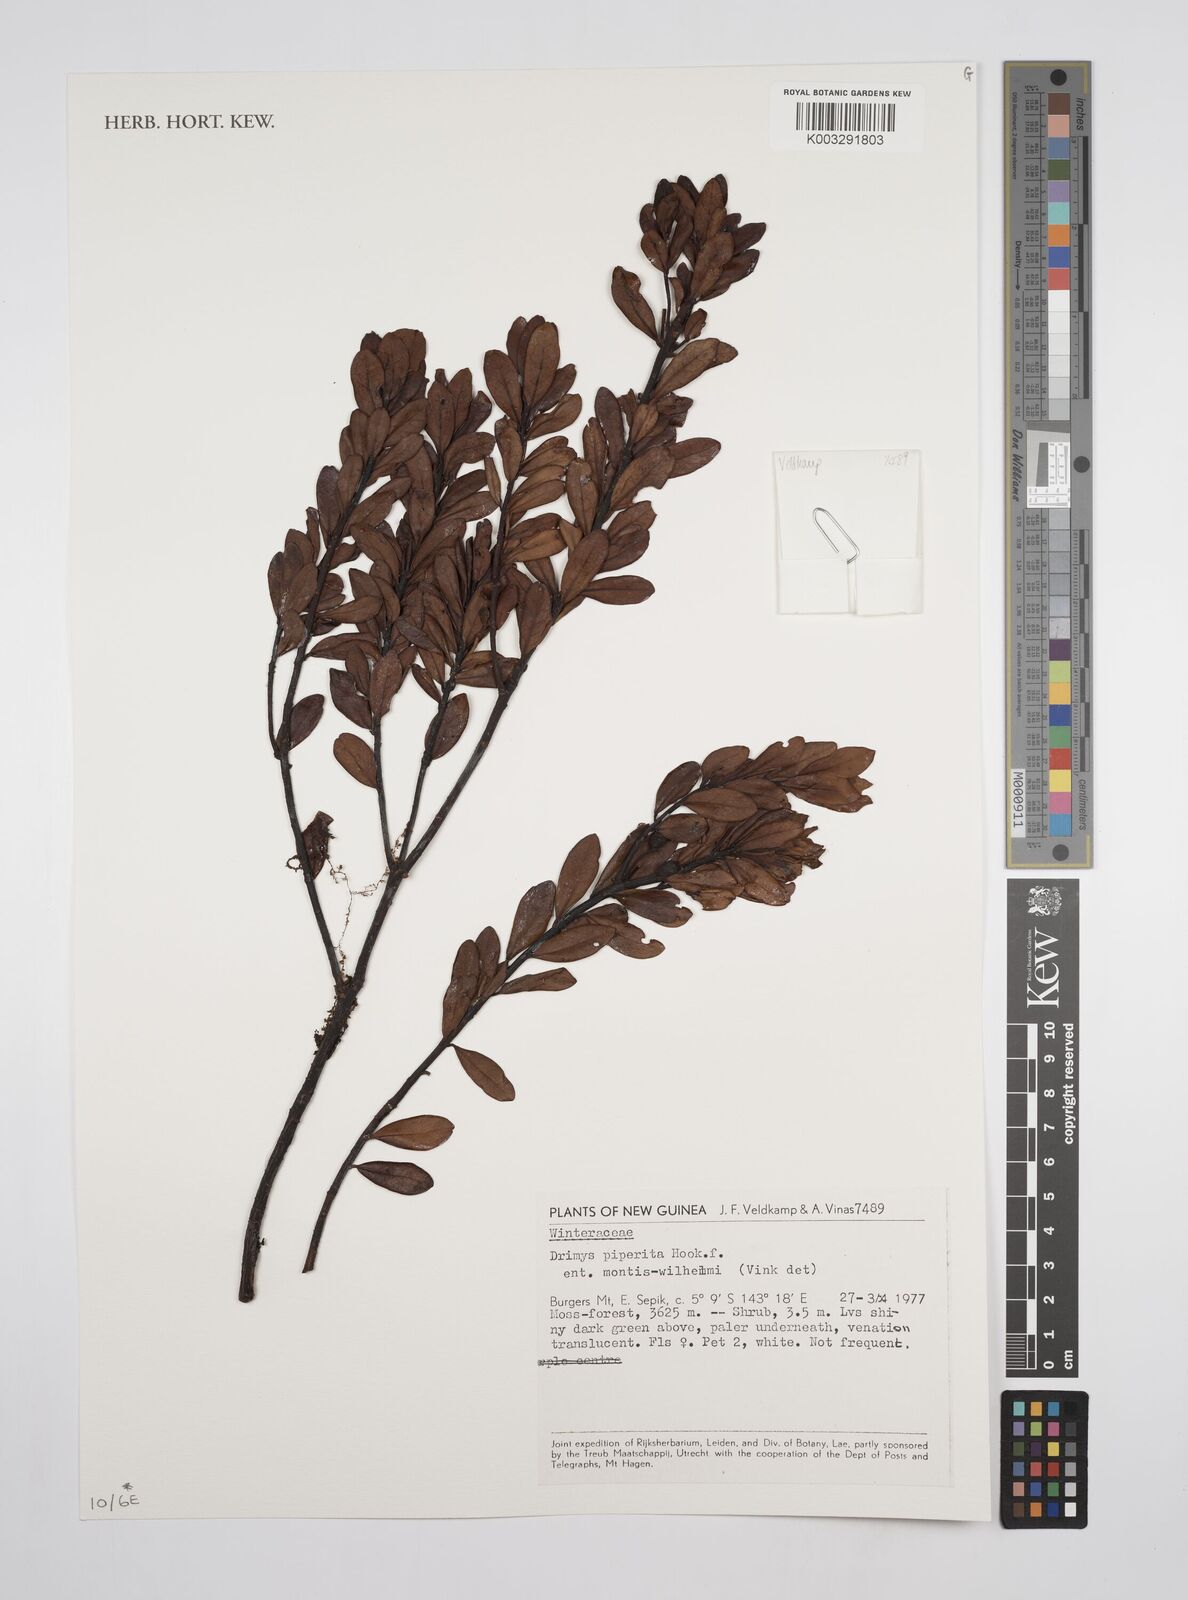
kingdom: Plantae
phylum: Tracheophyta
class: Magnoliopsida
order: Canellales
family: Winteraceae
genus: Drimys
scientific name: Drimys piperita
